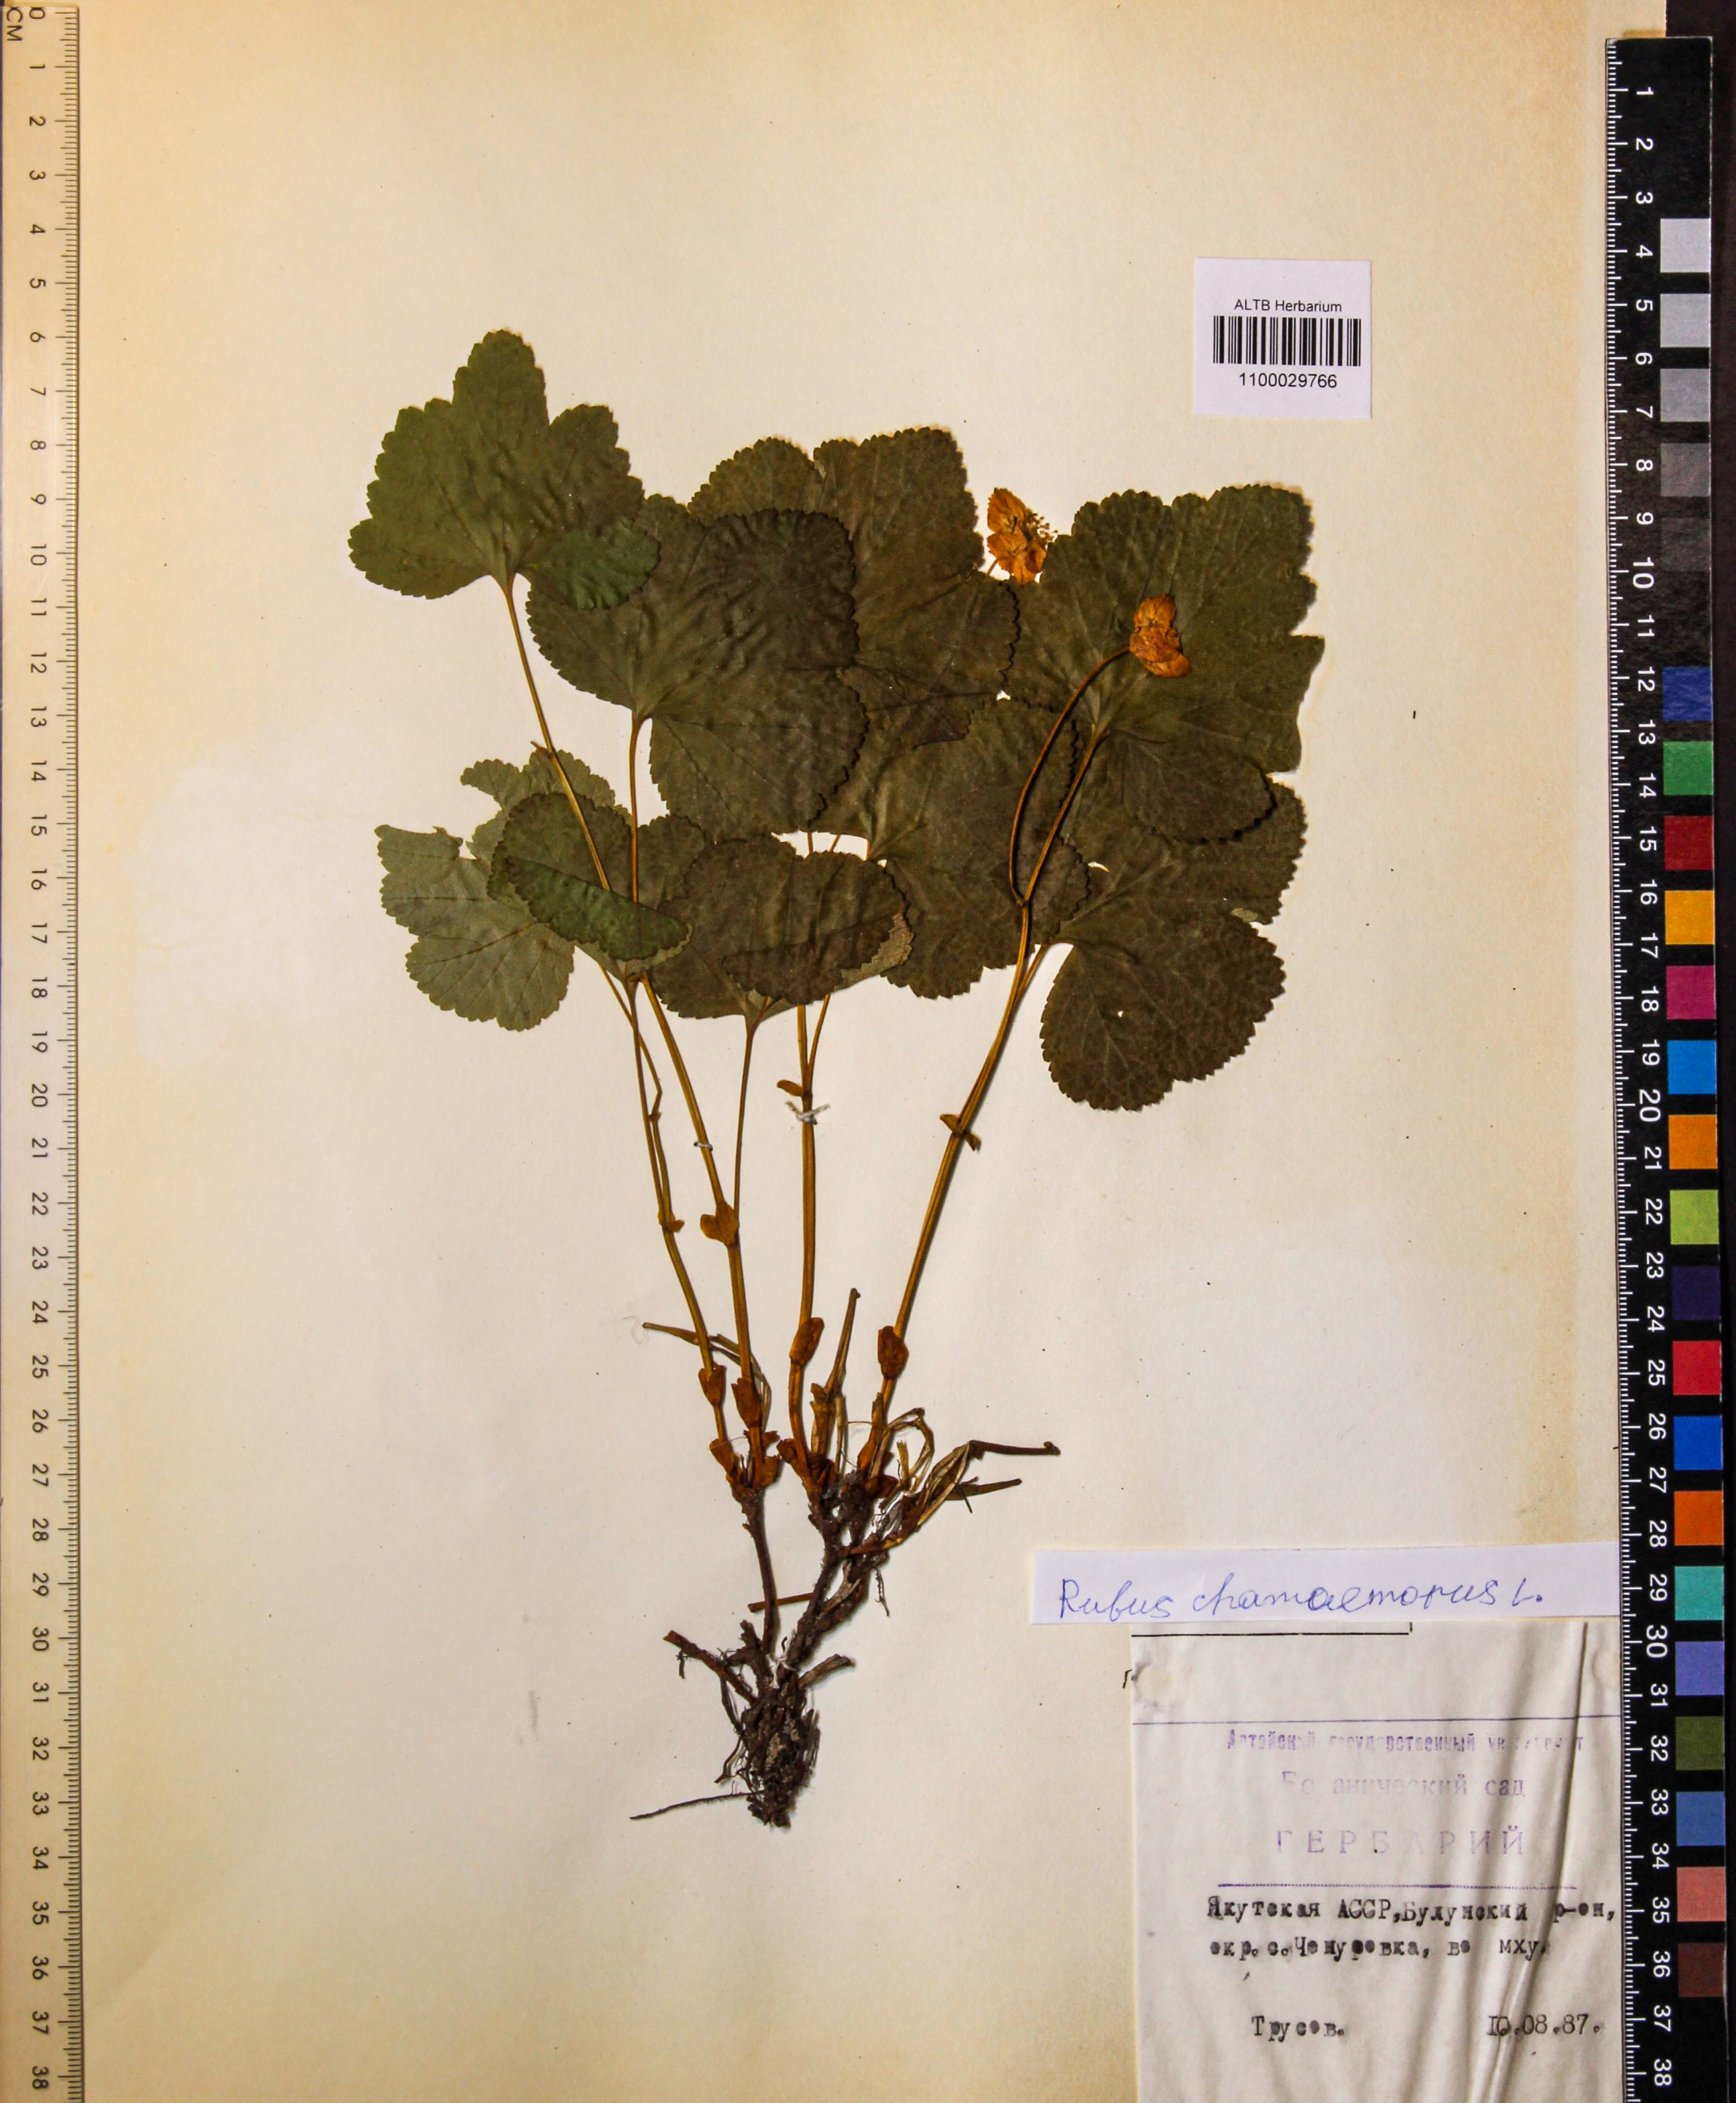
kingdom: Plantae
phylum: Tracheophyta
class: Magnoliopsida
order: Rosales
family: Rosaceae
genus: Rubus
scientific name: Rubus chamaemorus
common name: Cloudberry
